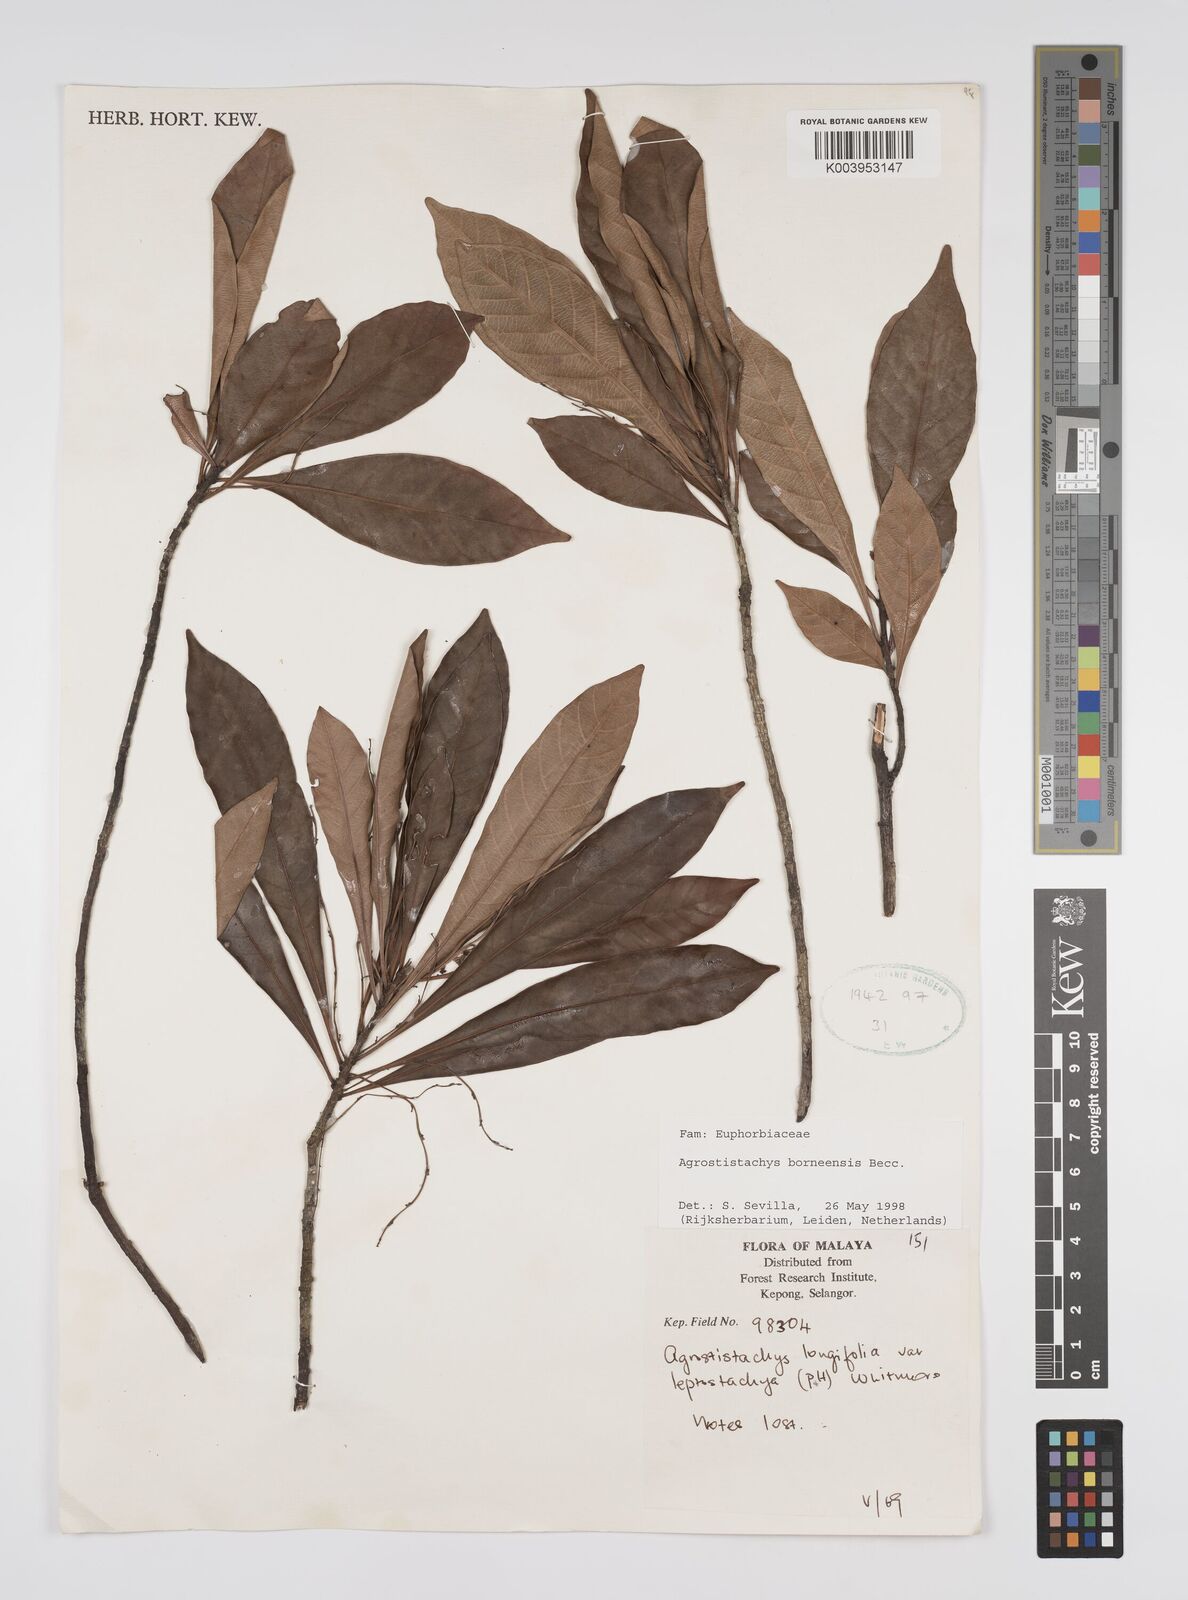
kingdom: Plantae
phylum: Tracheophyta
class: Magnoliopsida
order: Malpighiales
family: Euphorbiaceae
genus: Agrostistachys
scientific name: Agrostistachys borneensis
